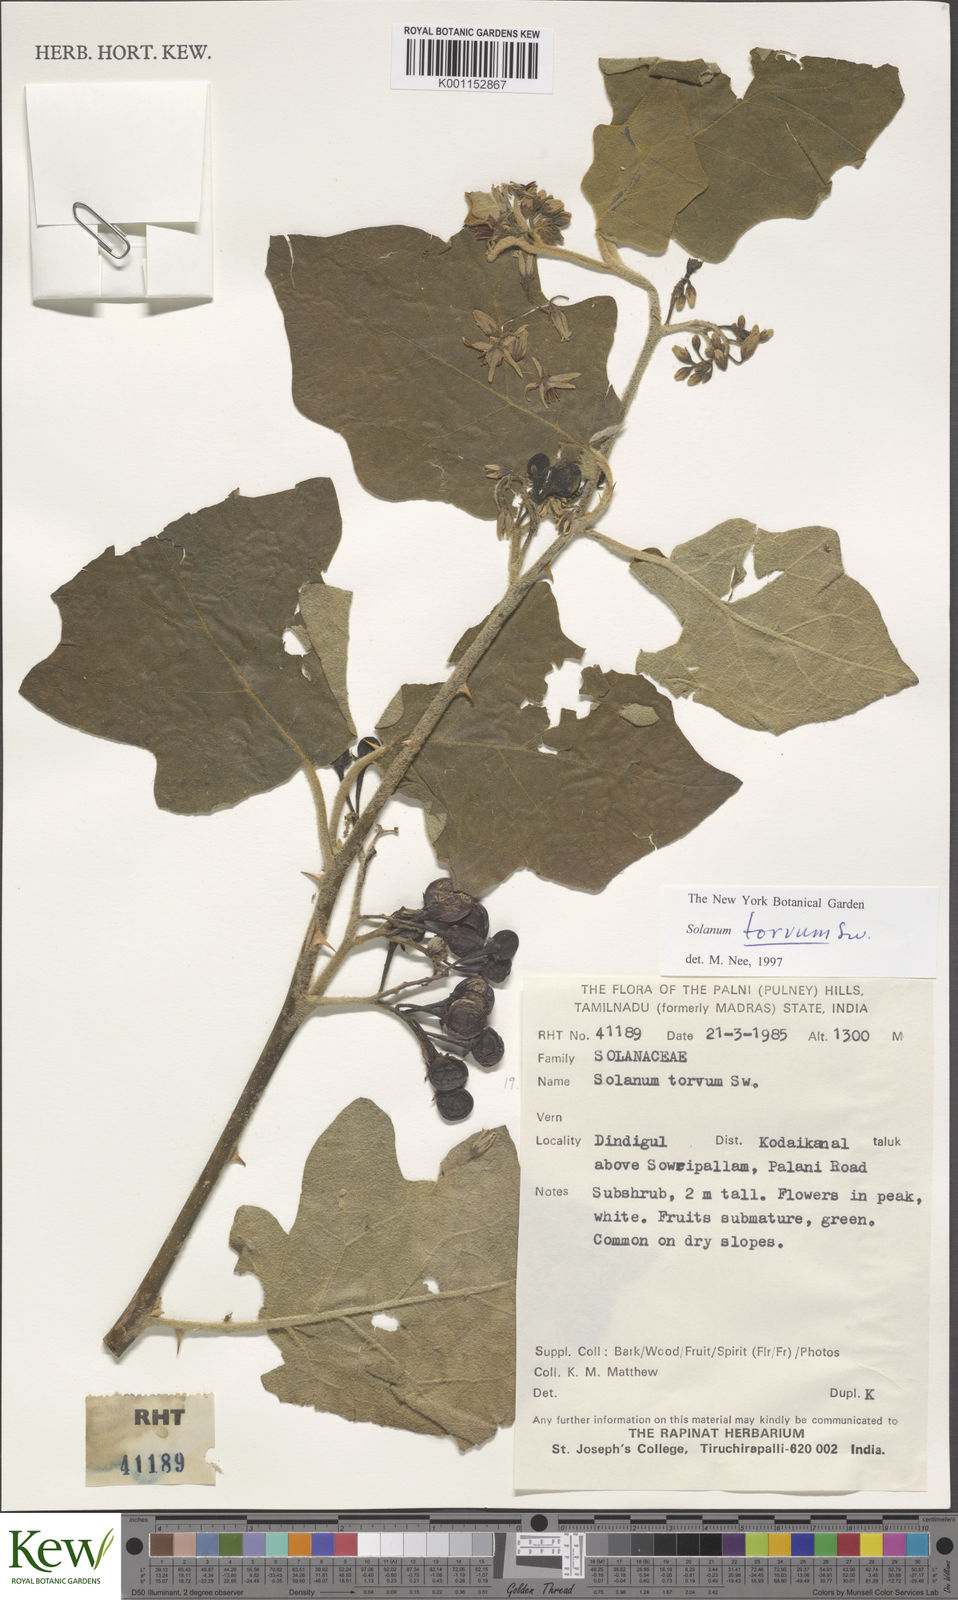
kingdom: Plantae
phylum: Tracheophyta
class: Magnoliopsida
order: Solanales
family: Solanaceae
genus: Solanum
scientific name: Solanum torvum
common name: Turkey berry
